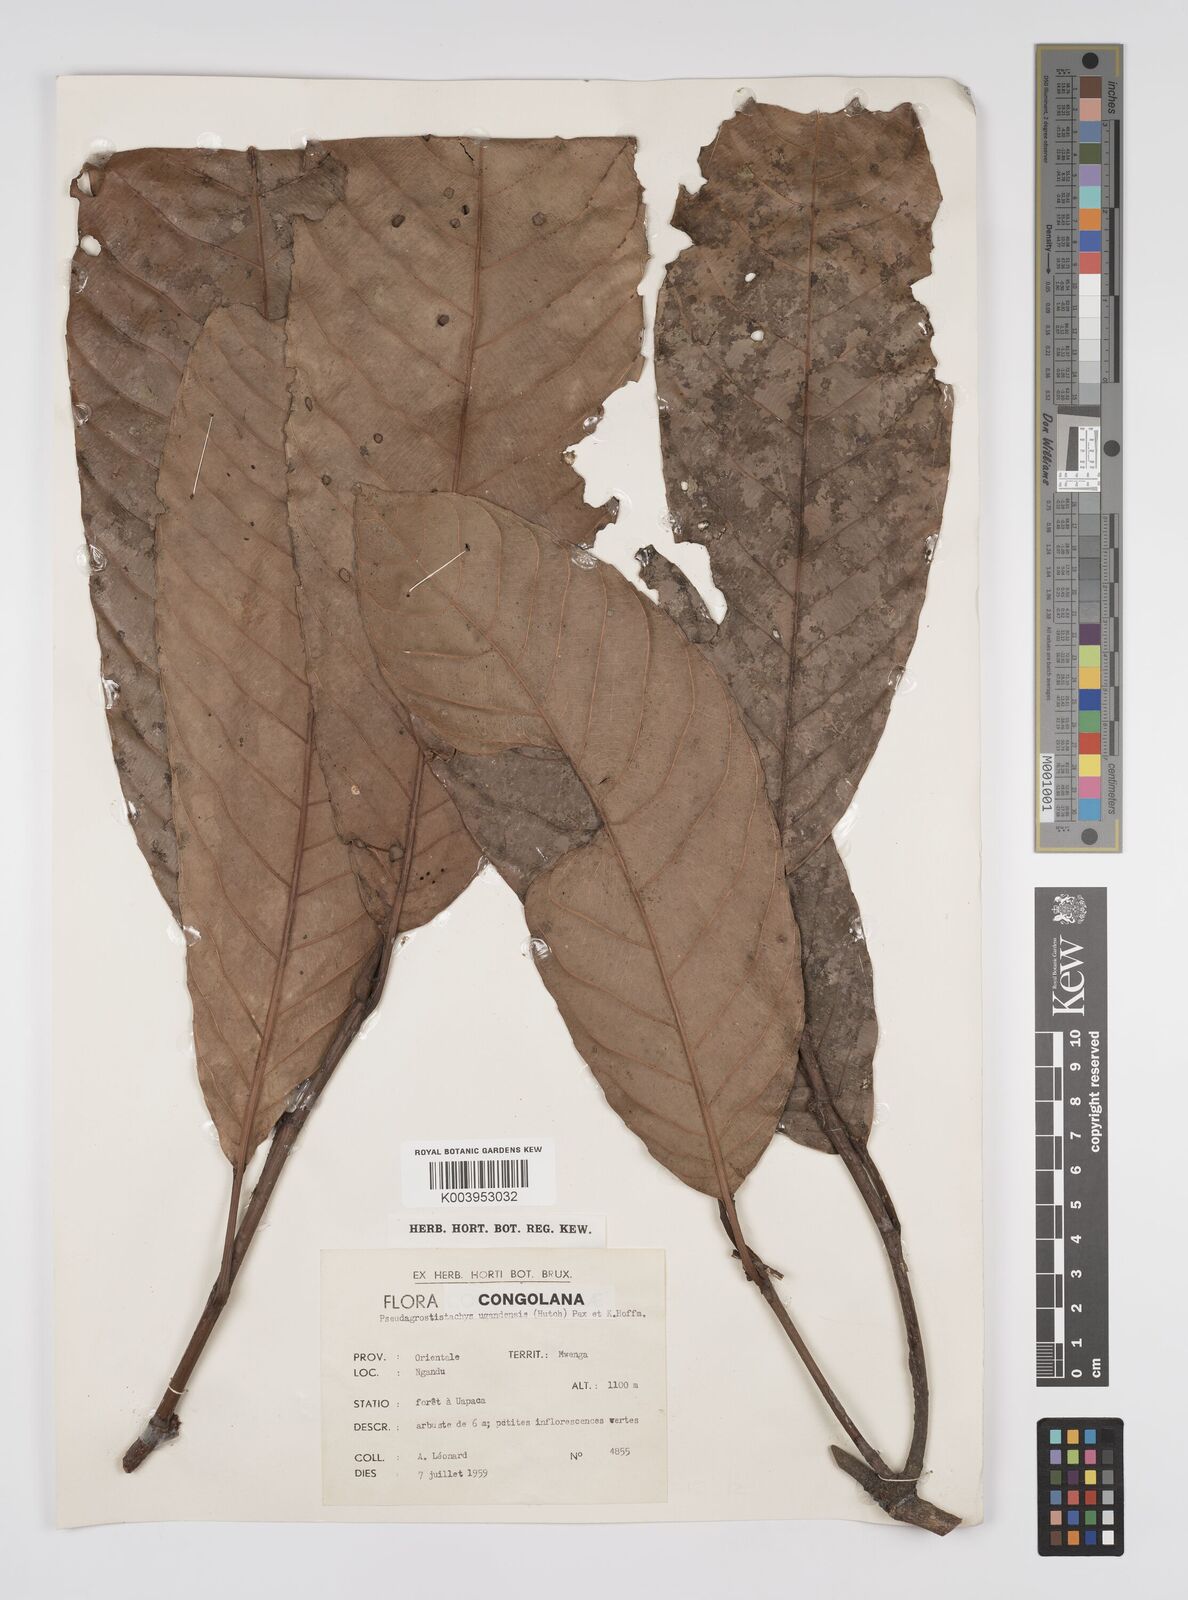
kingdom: Plantae
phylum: Tracheophyta
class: Magnoliopsida
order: Malpighiales
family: Euphorbiaceae
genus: Pseudagrostistachys
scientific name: Pseudagrostistachys ugandensis
